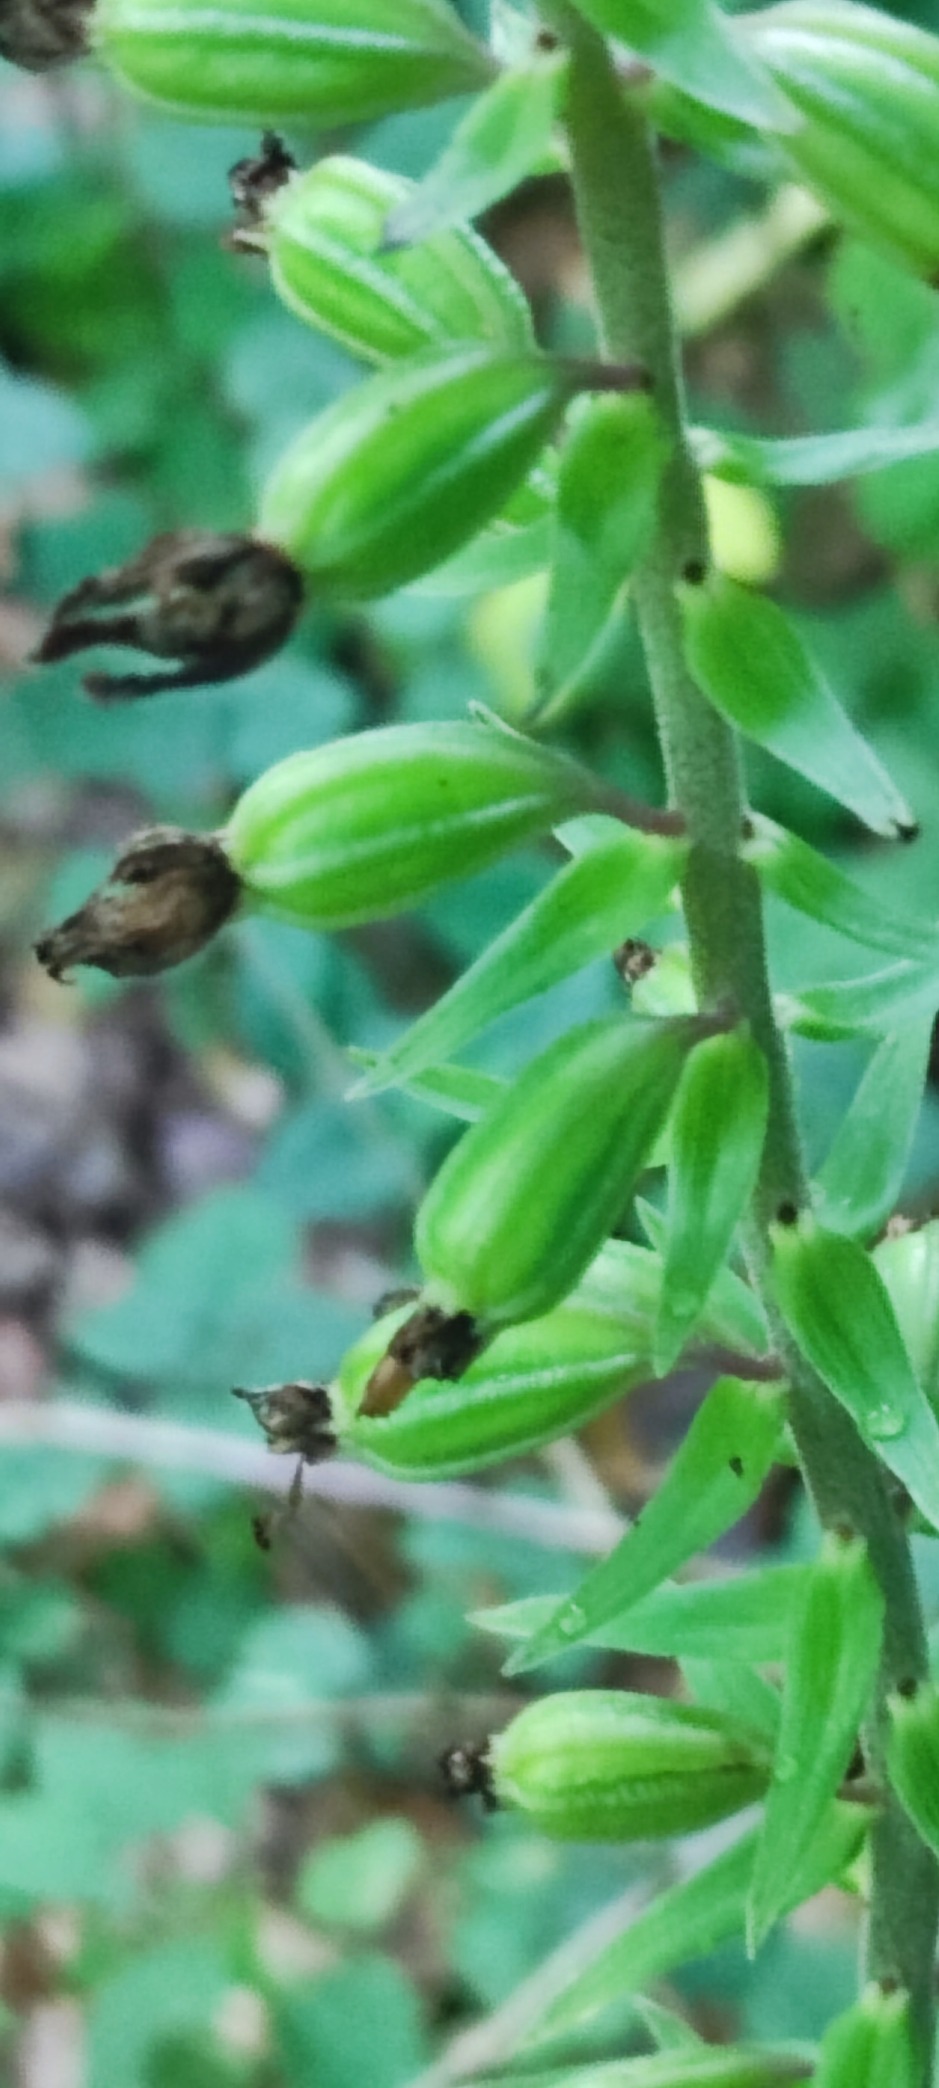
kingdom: Plantae
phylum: Tracheophyta
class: Liliopsida
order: Asparagales
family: Orchidaceae
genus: Epipactis
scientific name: Epipactis helleborine
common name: Skov-hullæbe
